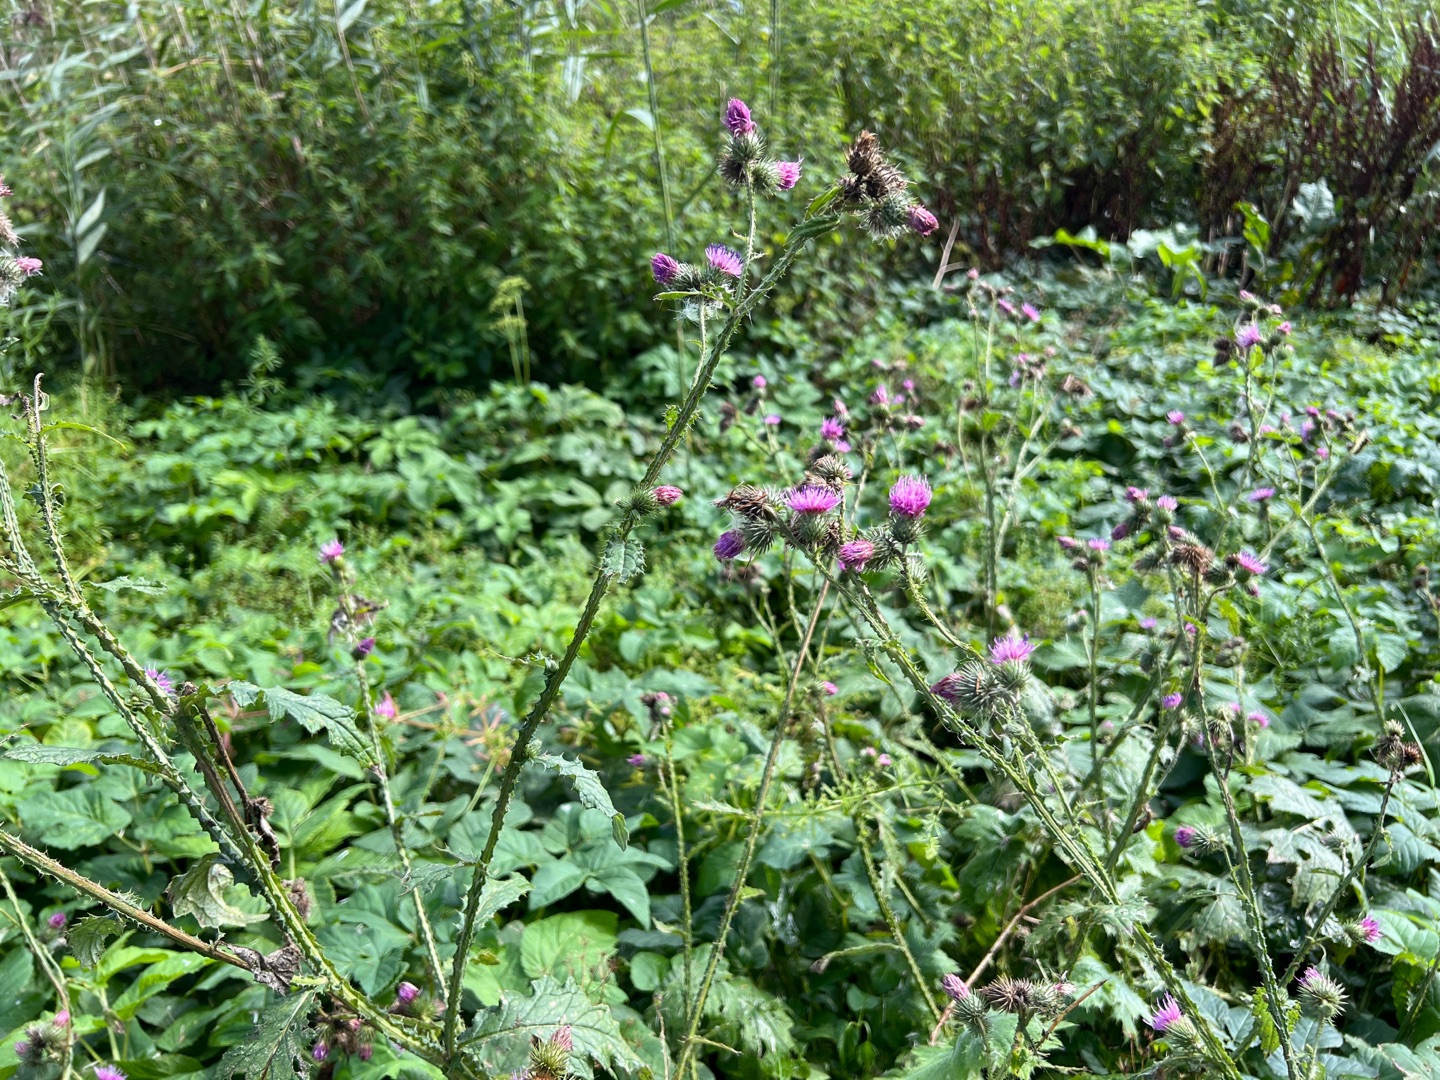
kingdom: Plantae
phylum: Tracheophyta
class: Magnoliopsida
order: Asterales
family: Asteraceae
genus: Carduus
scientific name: Carduus crispus
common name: Kruset tidsel
